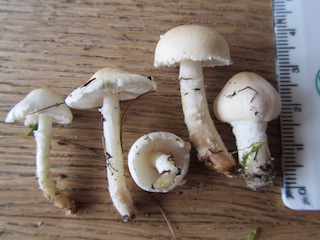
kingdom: Fungi
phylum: Basidiomycota
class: Agaricomycetes
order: Agaricales
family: Agaricaceae
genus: Lepiota
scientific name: Lepiota erminea
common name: hvid parasolhat
